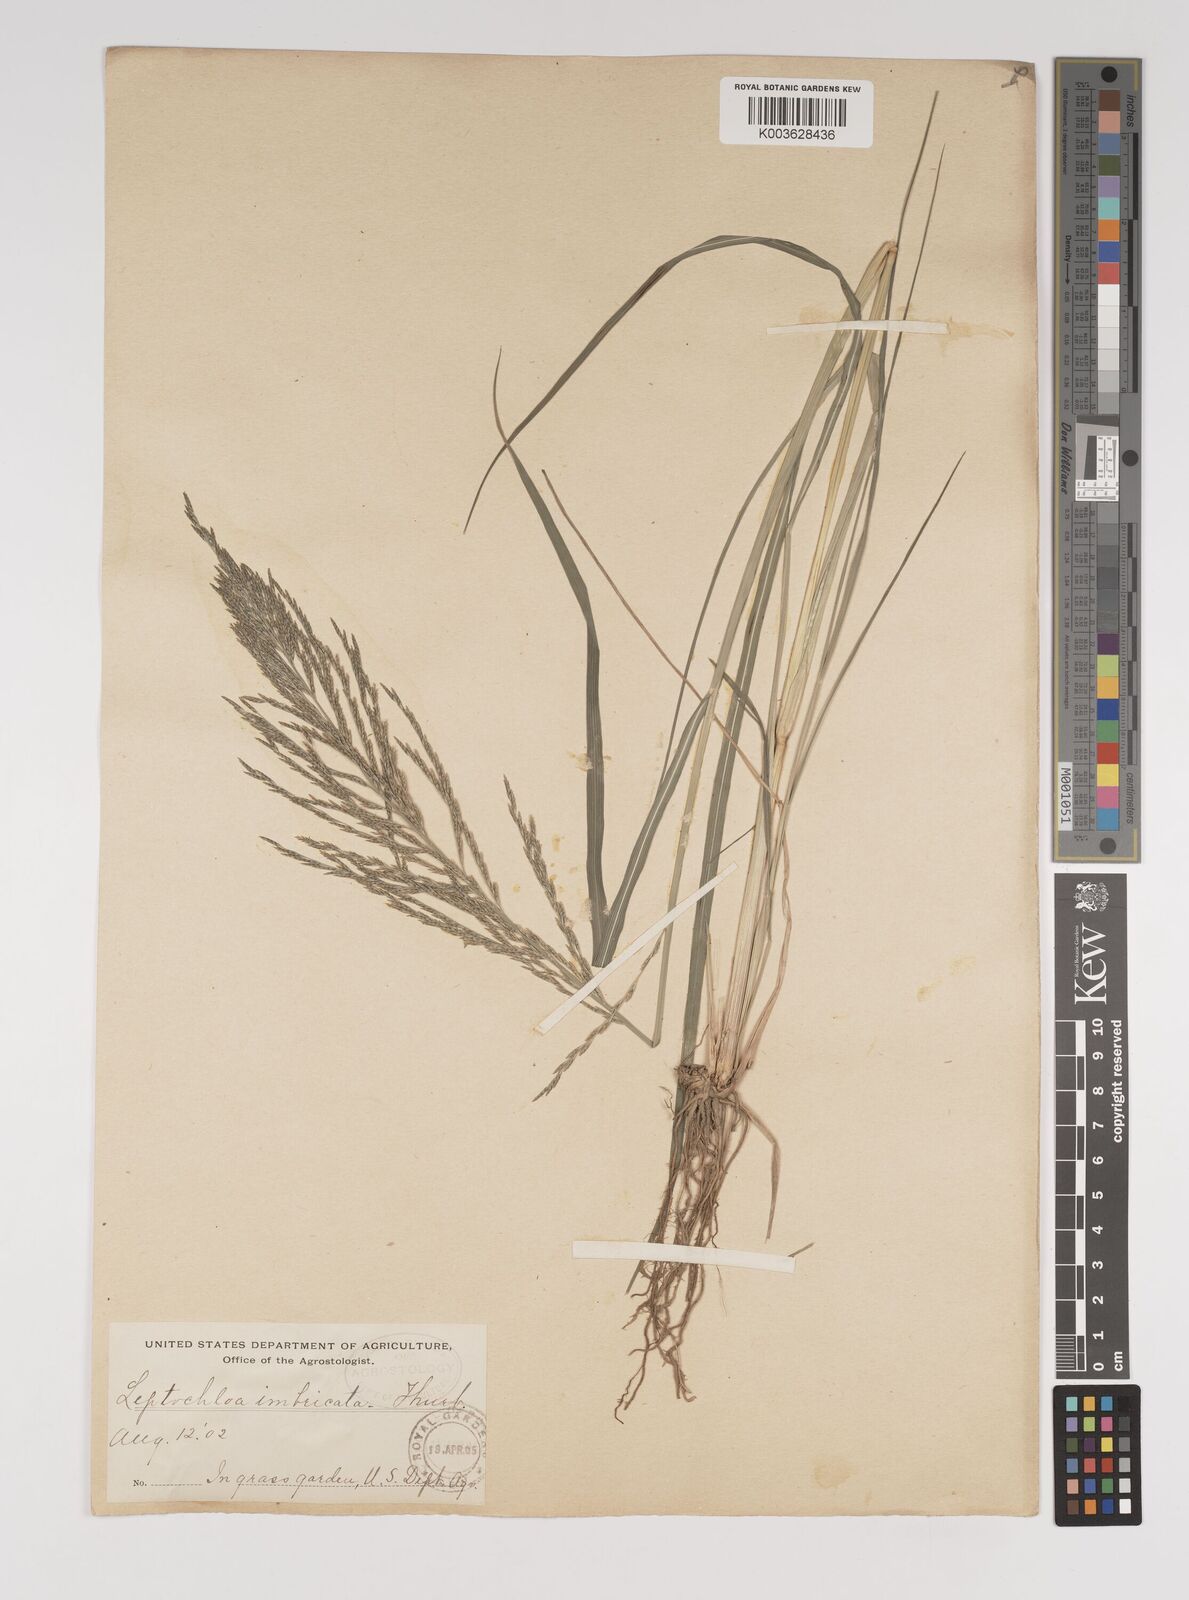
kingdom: Plantae
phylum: Tracheophyta
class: Liliopsida
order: Poales
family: Poaceae
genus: Diplachne
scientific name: Diplachne fusca
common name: Brown beetle grass
